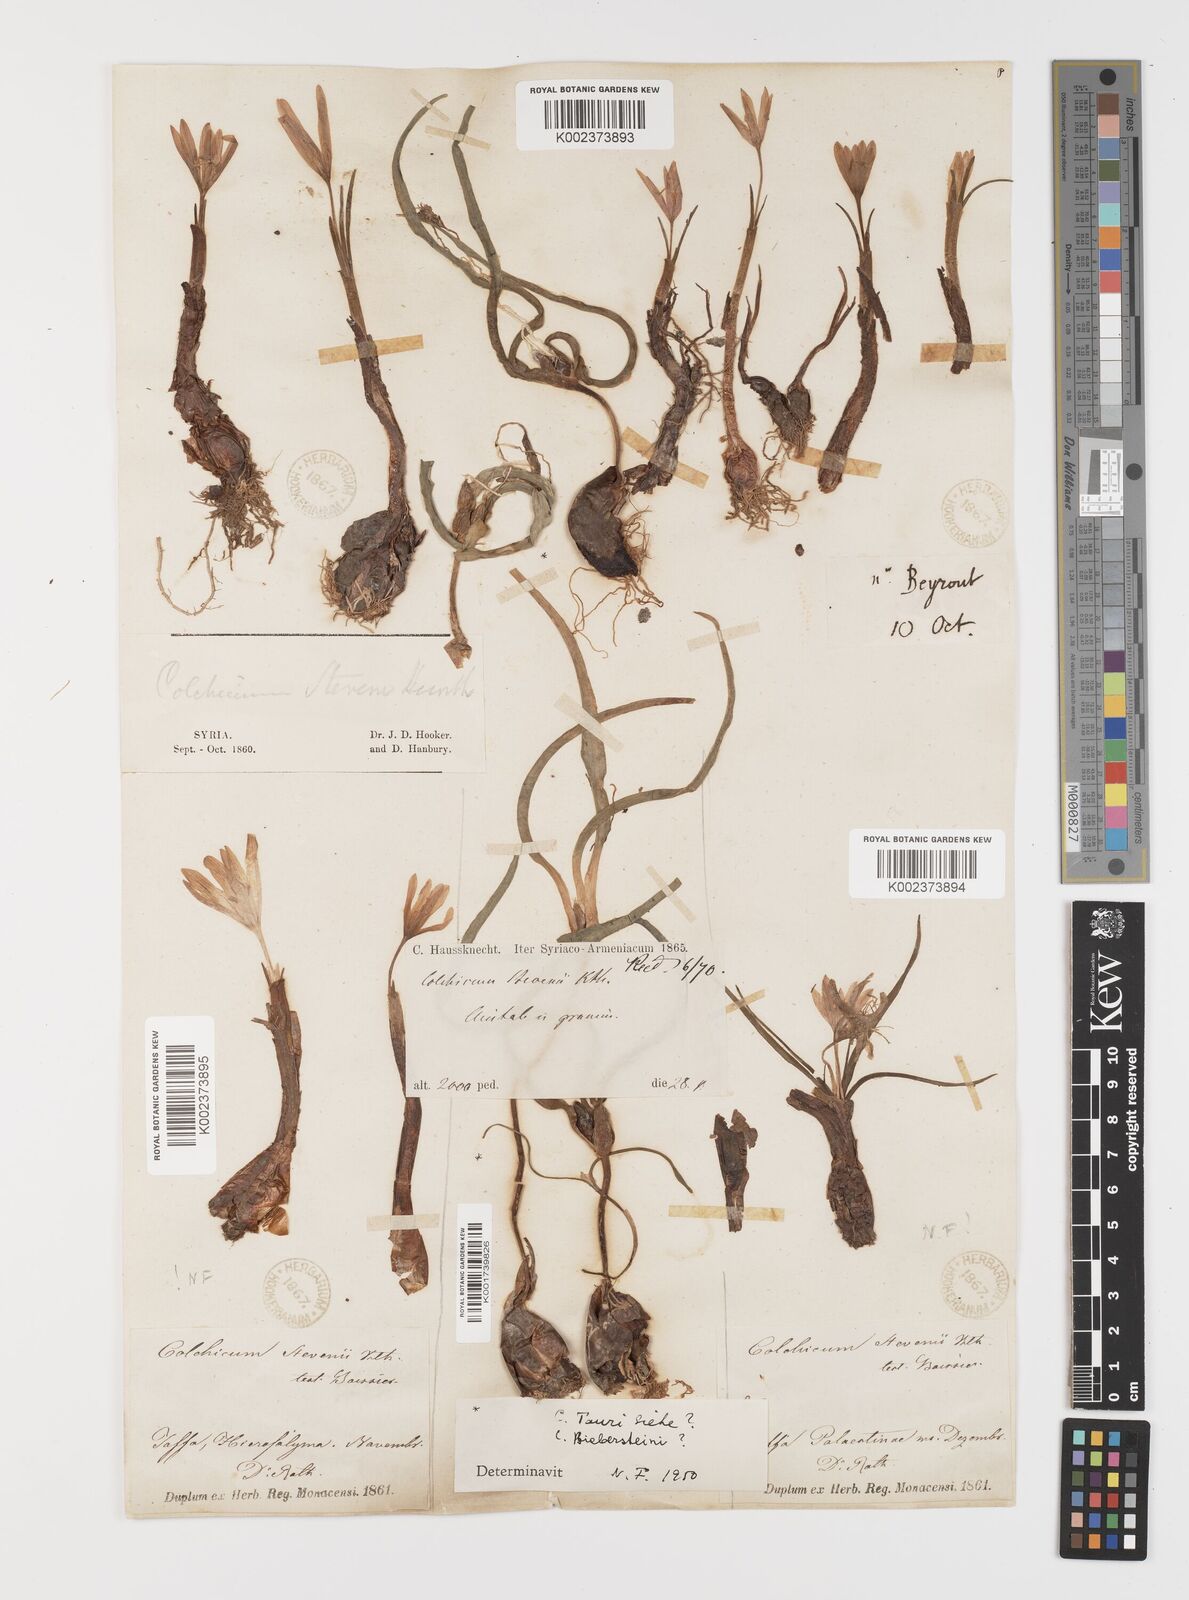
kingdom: Plantae
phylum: Tracheophyta
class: Liliopsida
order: Liliales
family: Colchicaceae
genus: Colchicum
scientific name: Colchicum stevenii
